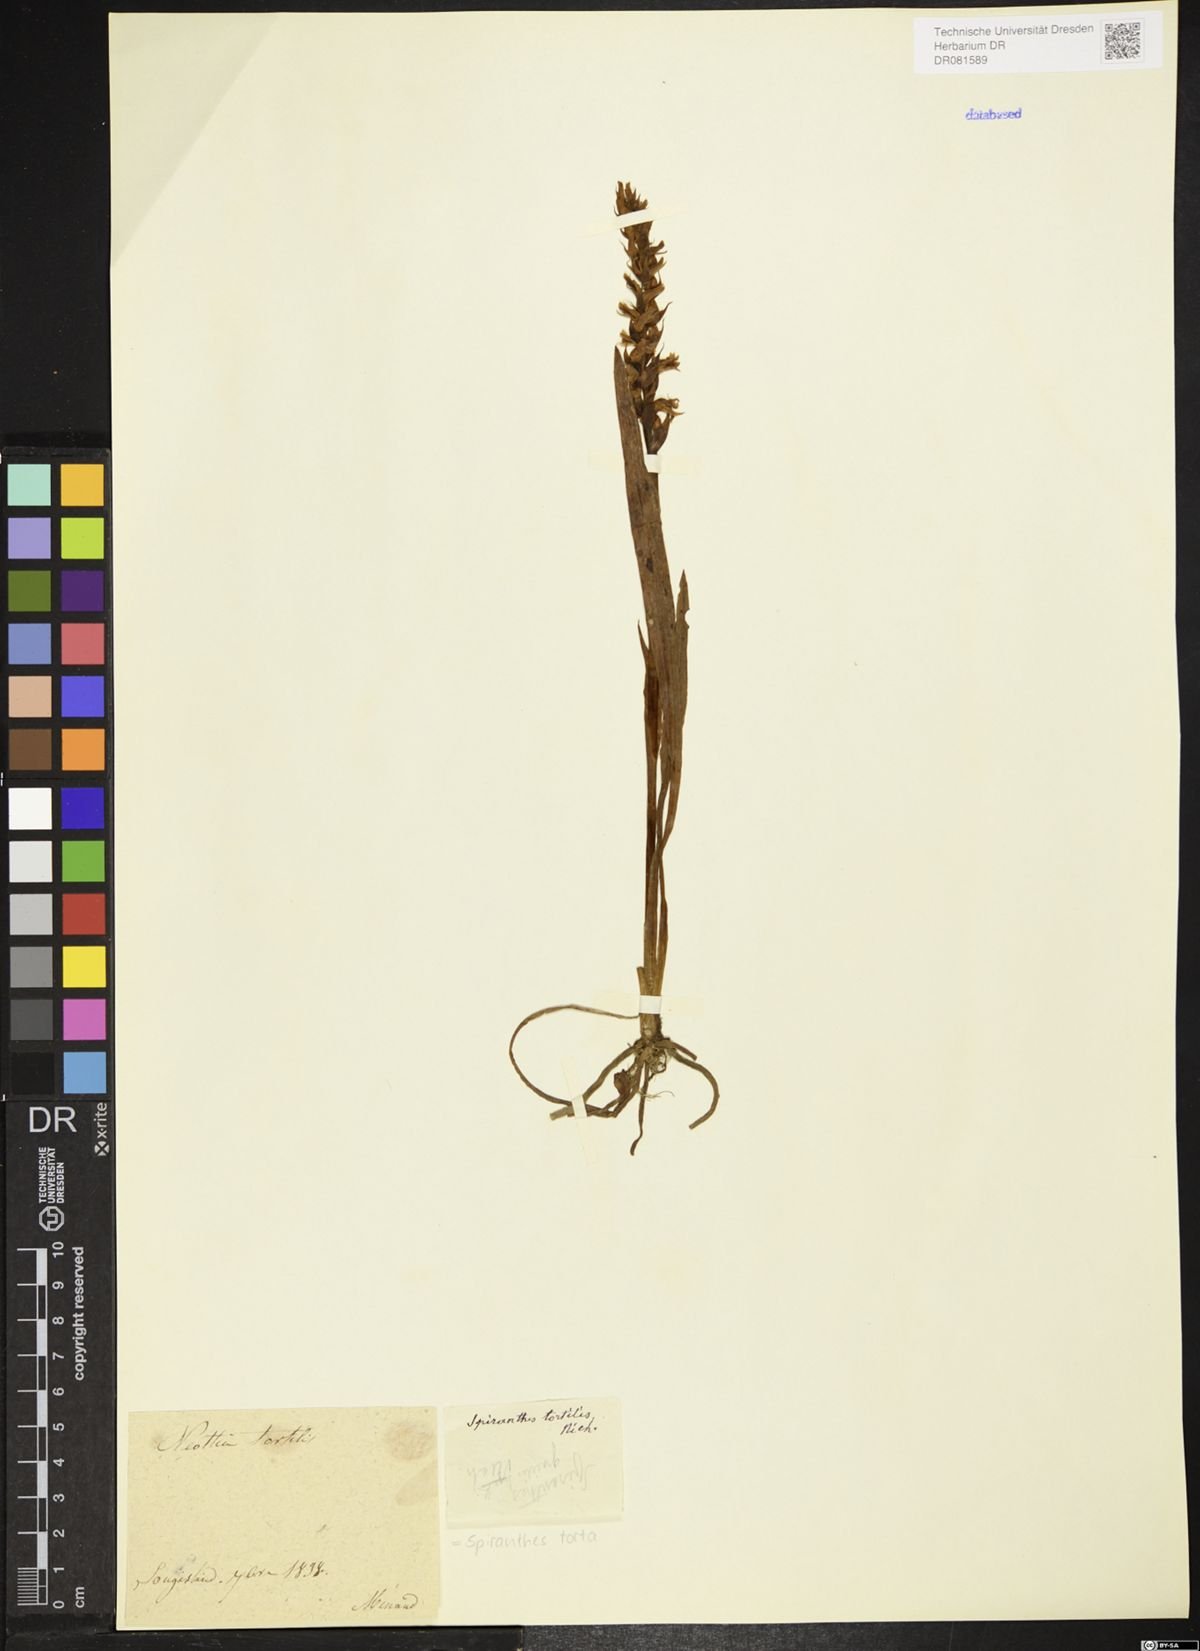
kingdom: Plantae
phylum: Tracheophyta
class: Liliopsida
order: Asparagales
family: Orchidaceae
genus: Spiranthes
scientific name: Spiranthes torta
